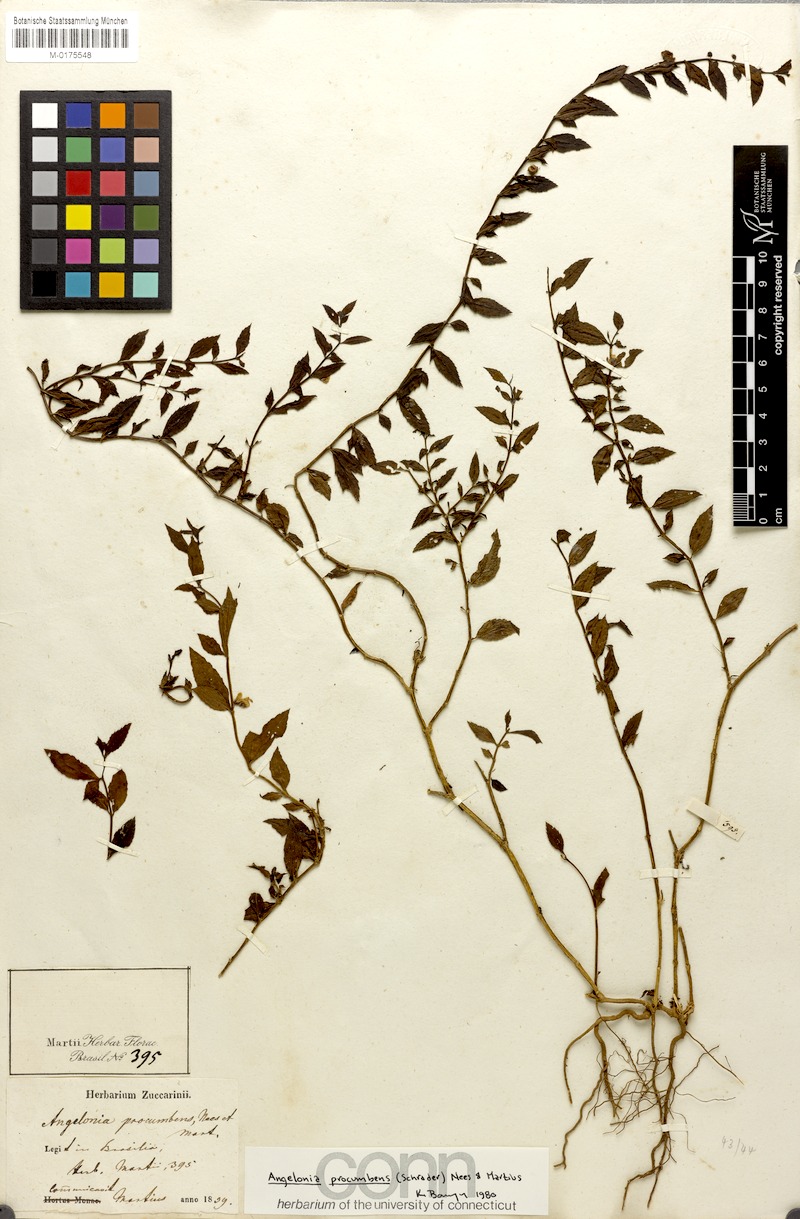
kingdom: Plantae
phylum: Tracheophyta
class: Magnoliopsida
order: Lamiales
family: Plantaginaceae
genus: Angelonia
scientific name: Angelonia procumbens
